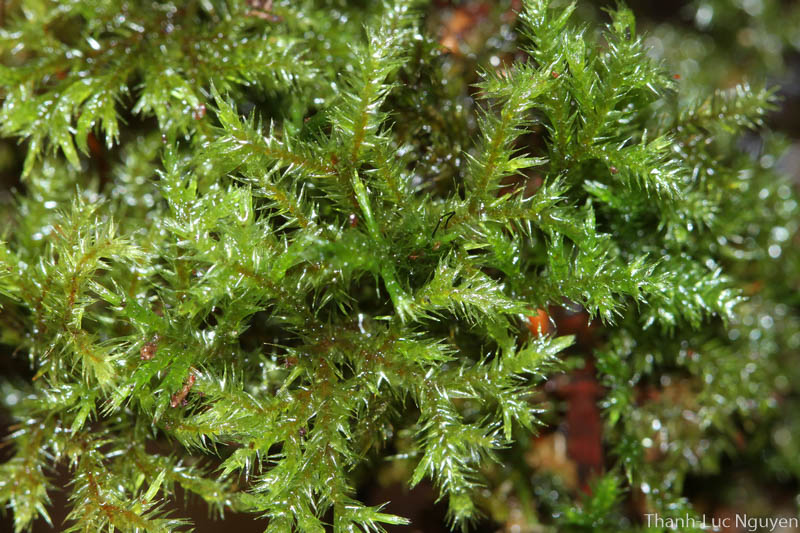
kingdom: Plantae
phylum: Bryophyta
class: Bryopsida
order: Hypnales
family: Pylaisiadelphaceae
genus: Trismegistia
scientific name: Trismegistia
